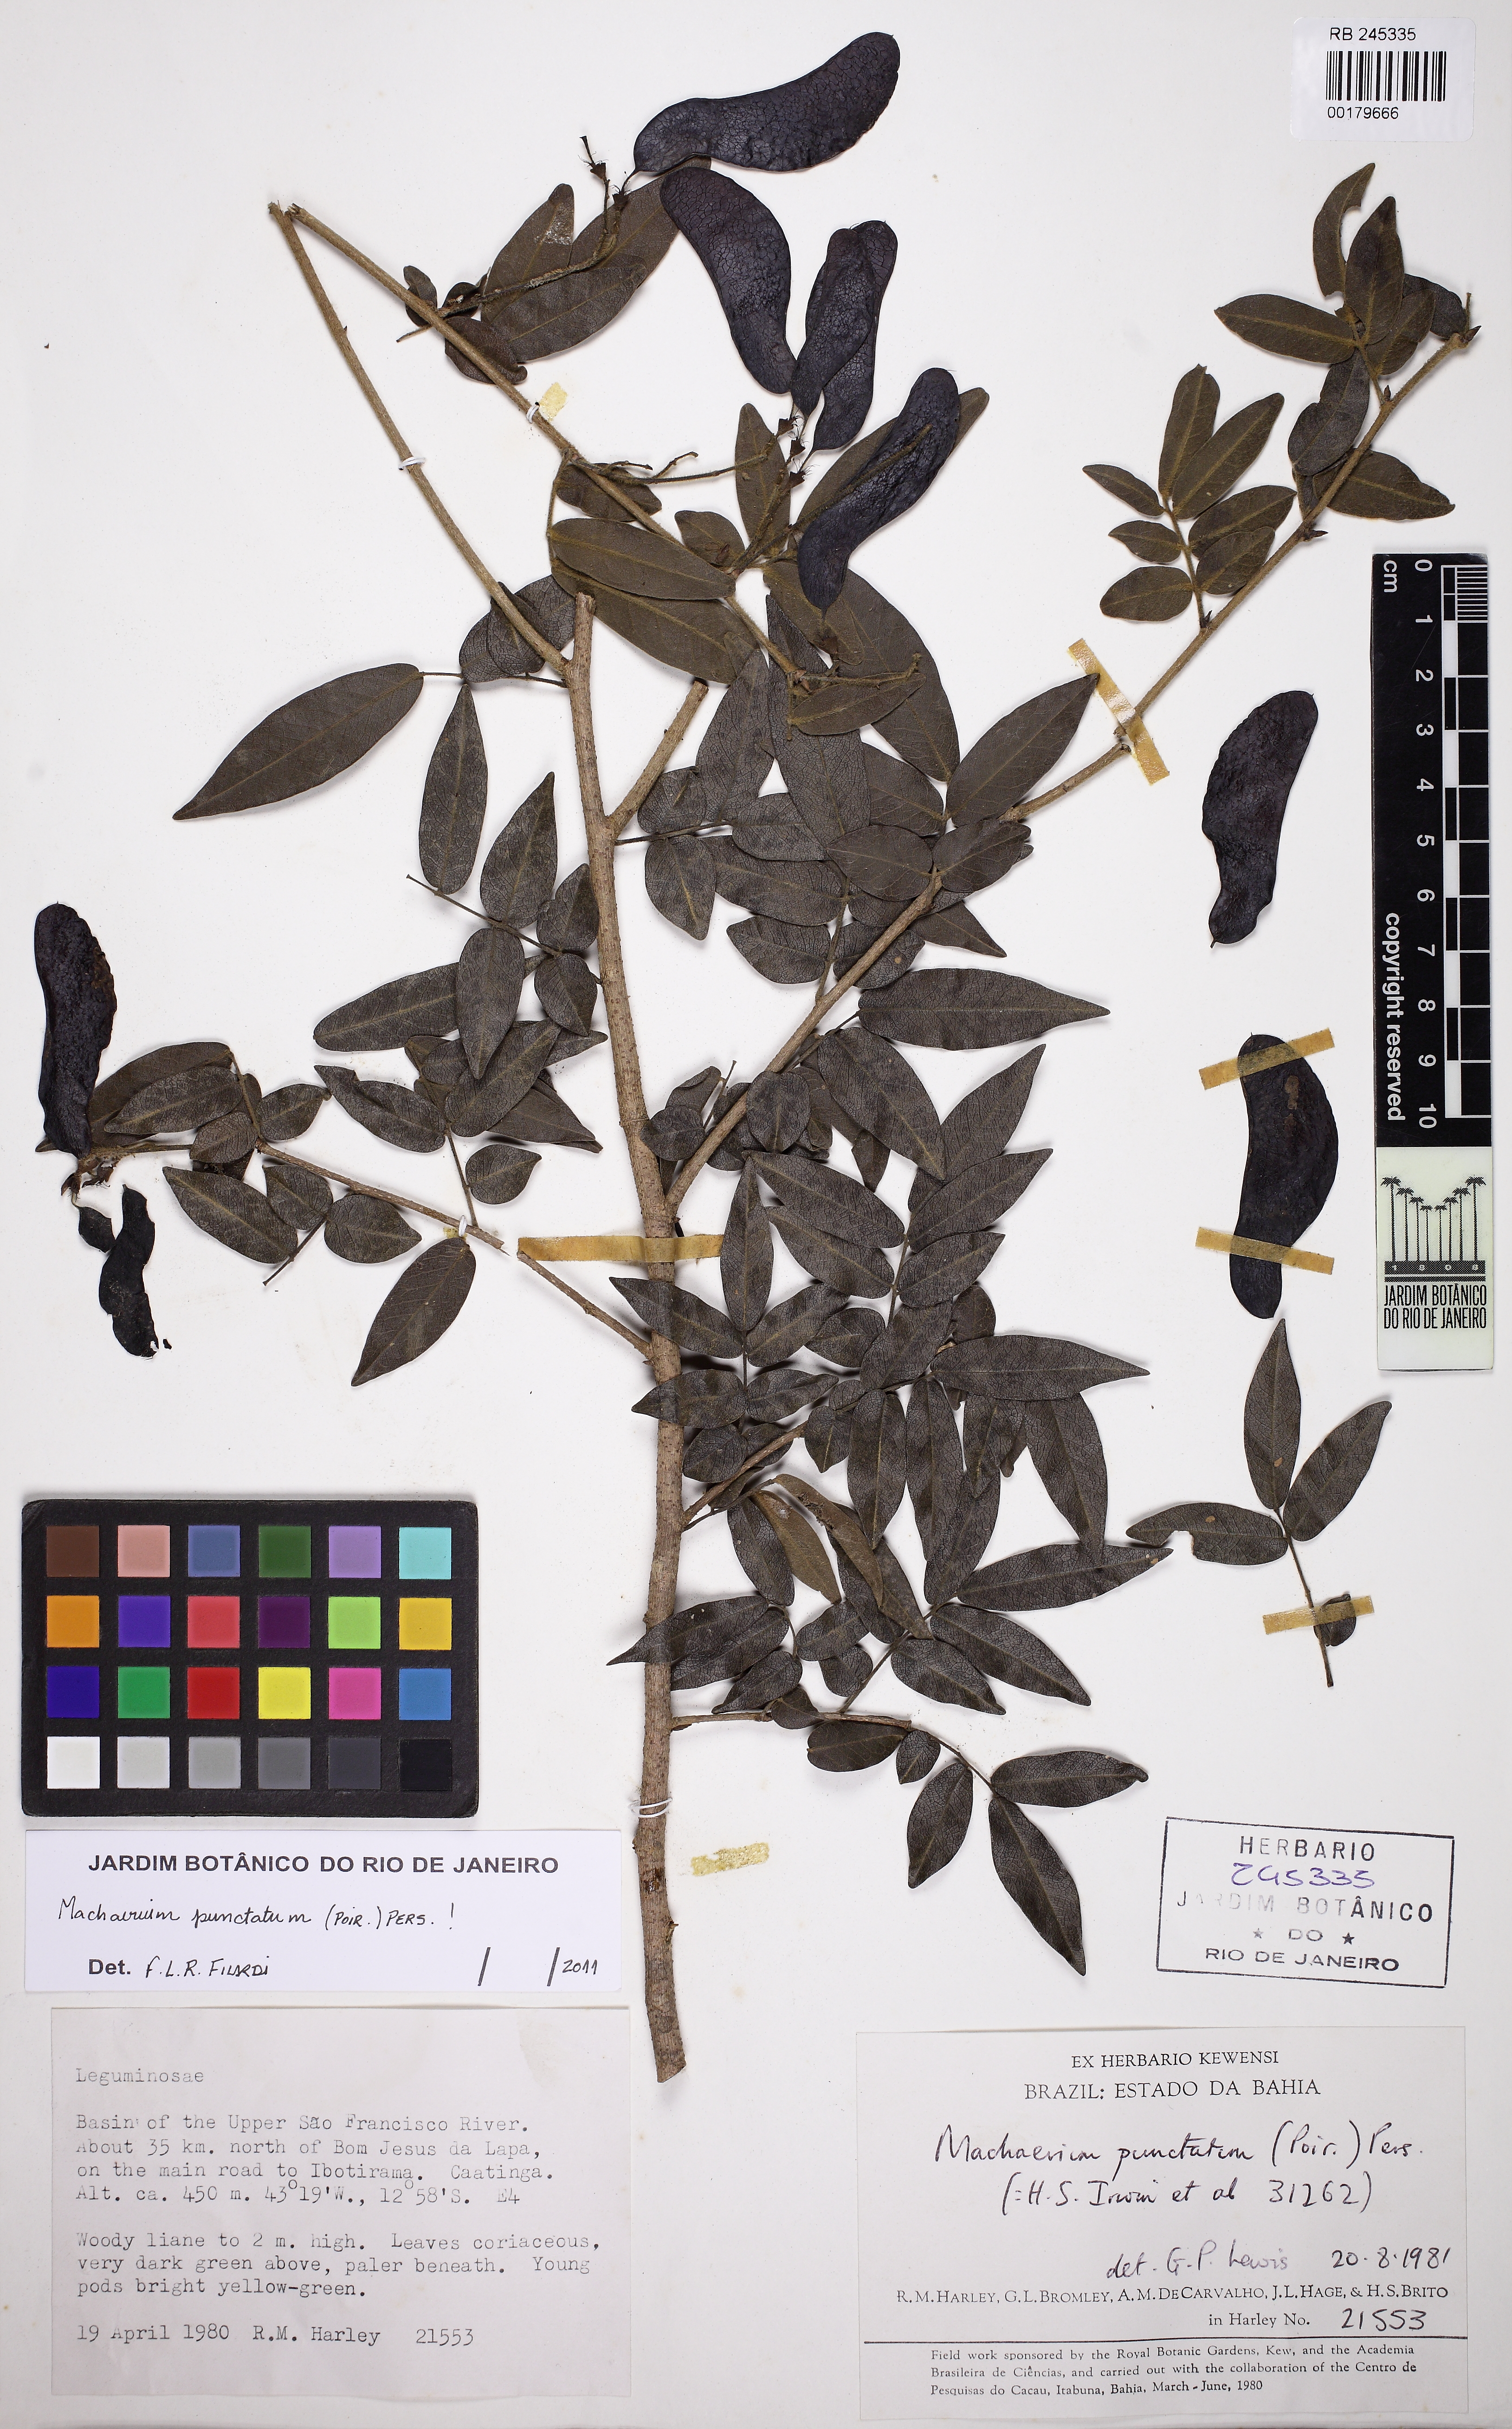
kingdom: Plantae
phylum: Tracheophyta
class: Magnoliopsida
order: Fabales
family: Fabaceae
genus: Machaerium
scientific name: Machaerium punctatum
